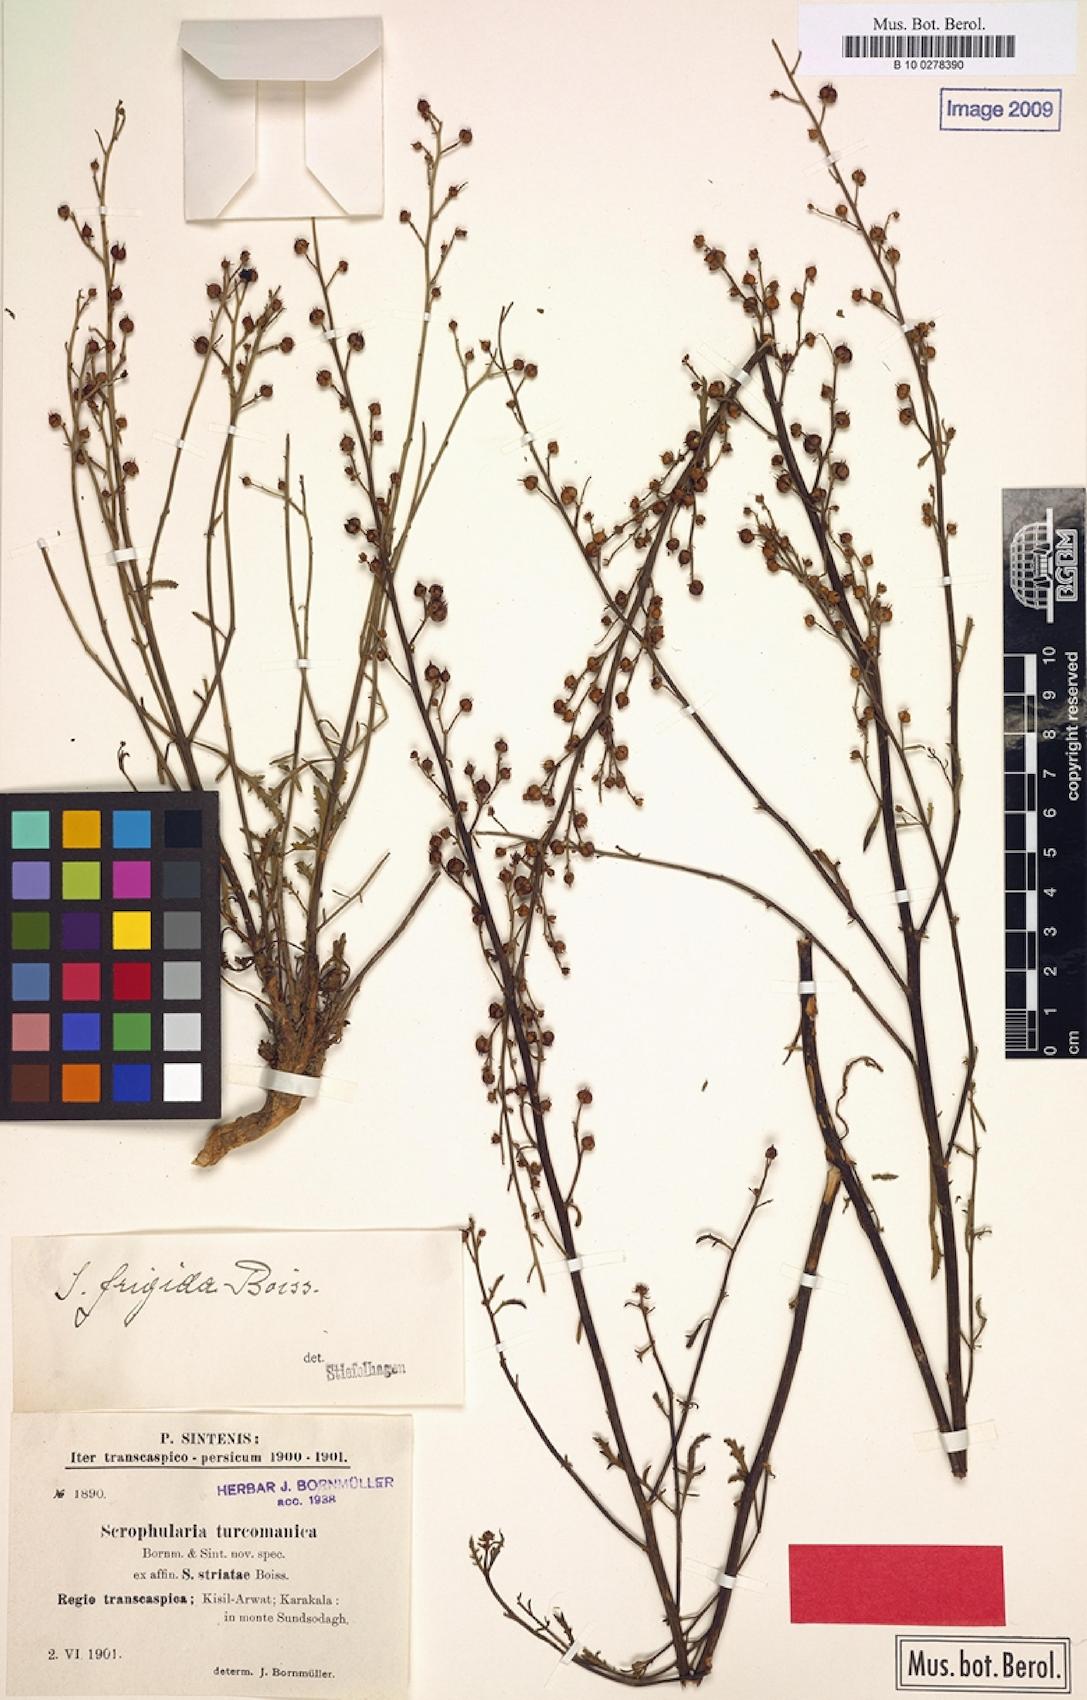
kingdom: Plantae
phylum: Tracheophyta
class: Magnoliopsida
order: Lamiales
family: Scrophulariaceae
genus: Scrophularia
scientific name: Scrophularia scoparia
